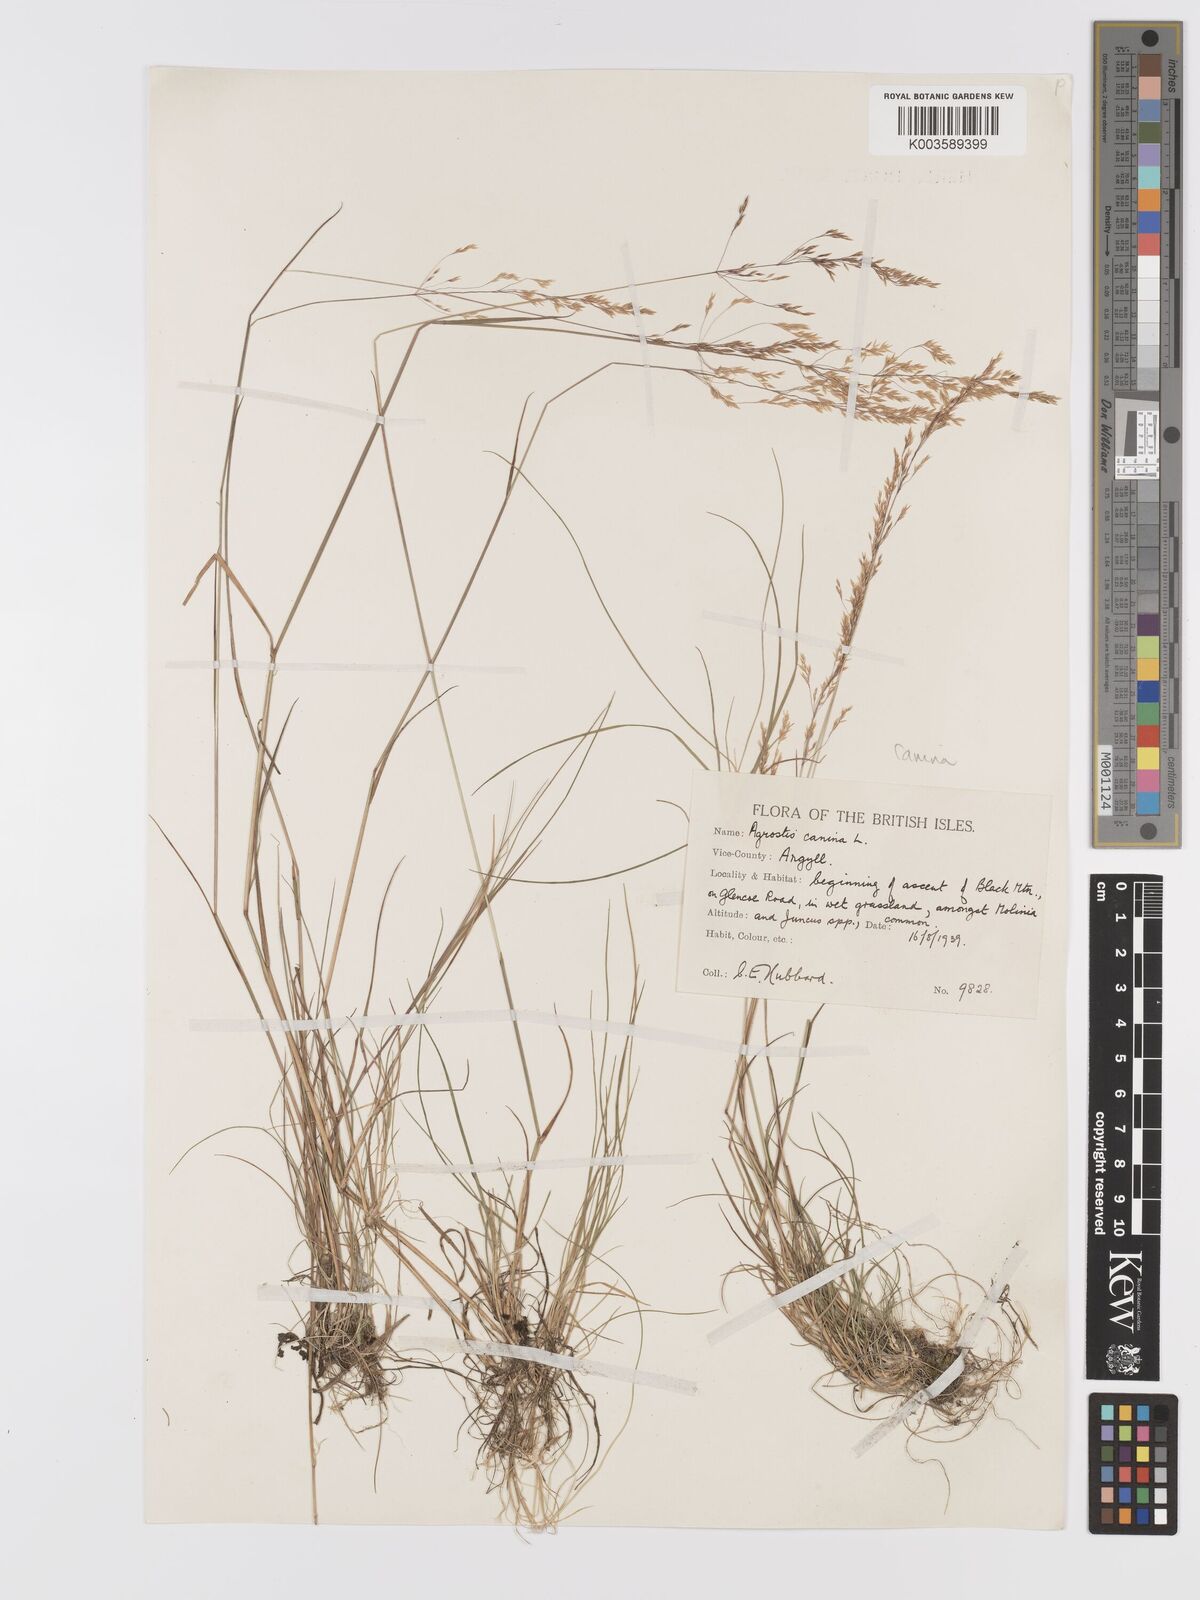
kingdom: Plantae
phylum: Tracheophyta
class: Liliopsida
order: Poales
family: Poaceae
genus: Agrostis
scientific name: Agrostis canina
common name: Velvet bent
